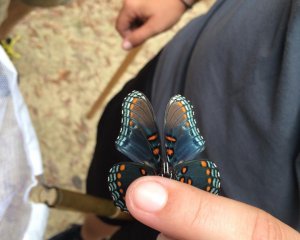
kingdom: Animalia
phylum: Arthropoda
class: Insecta
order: Lepidoptera
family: Nymphalidae
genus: Limenitis
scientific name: Limenitis astyanax
